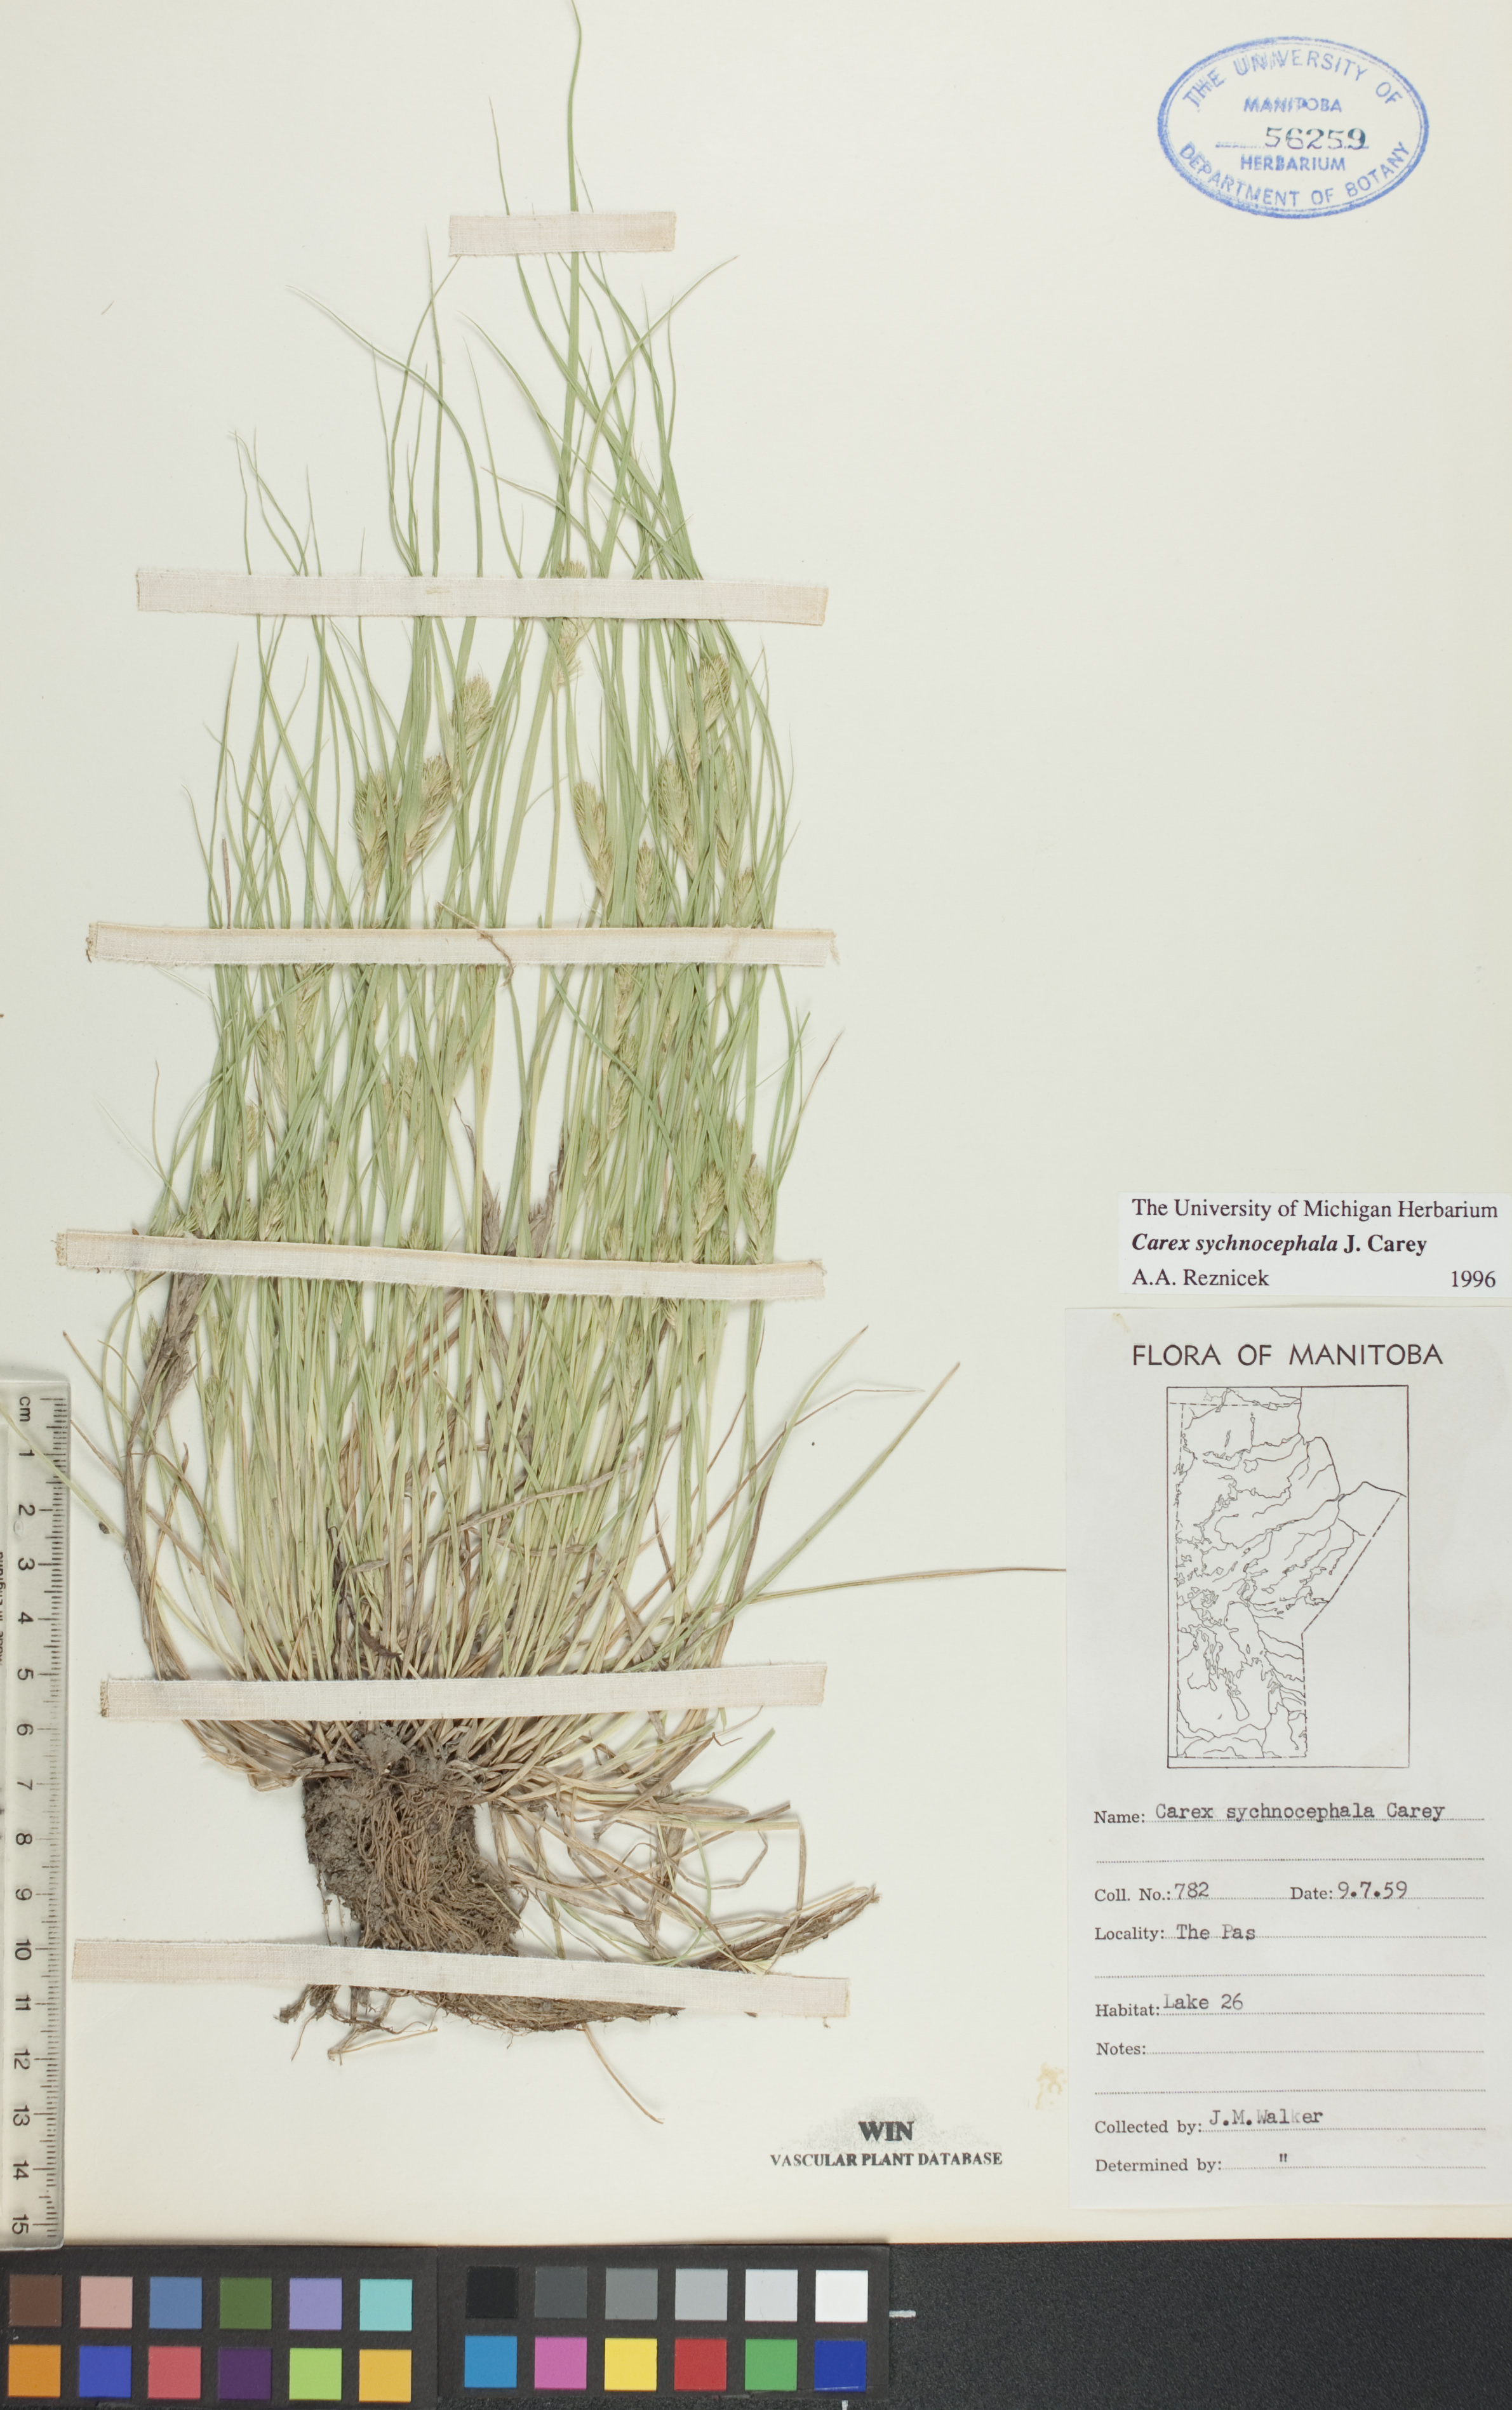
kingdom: Plantae
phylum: Tracheophyta
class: Liliopsida
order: Poales
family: Cyperaceae
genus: Carex
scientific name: Carex sychnocephala
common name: Dense long-beaked sedge
